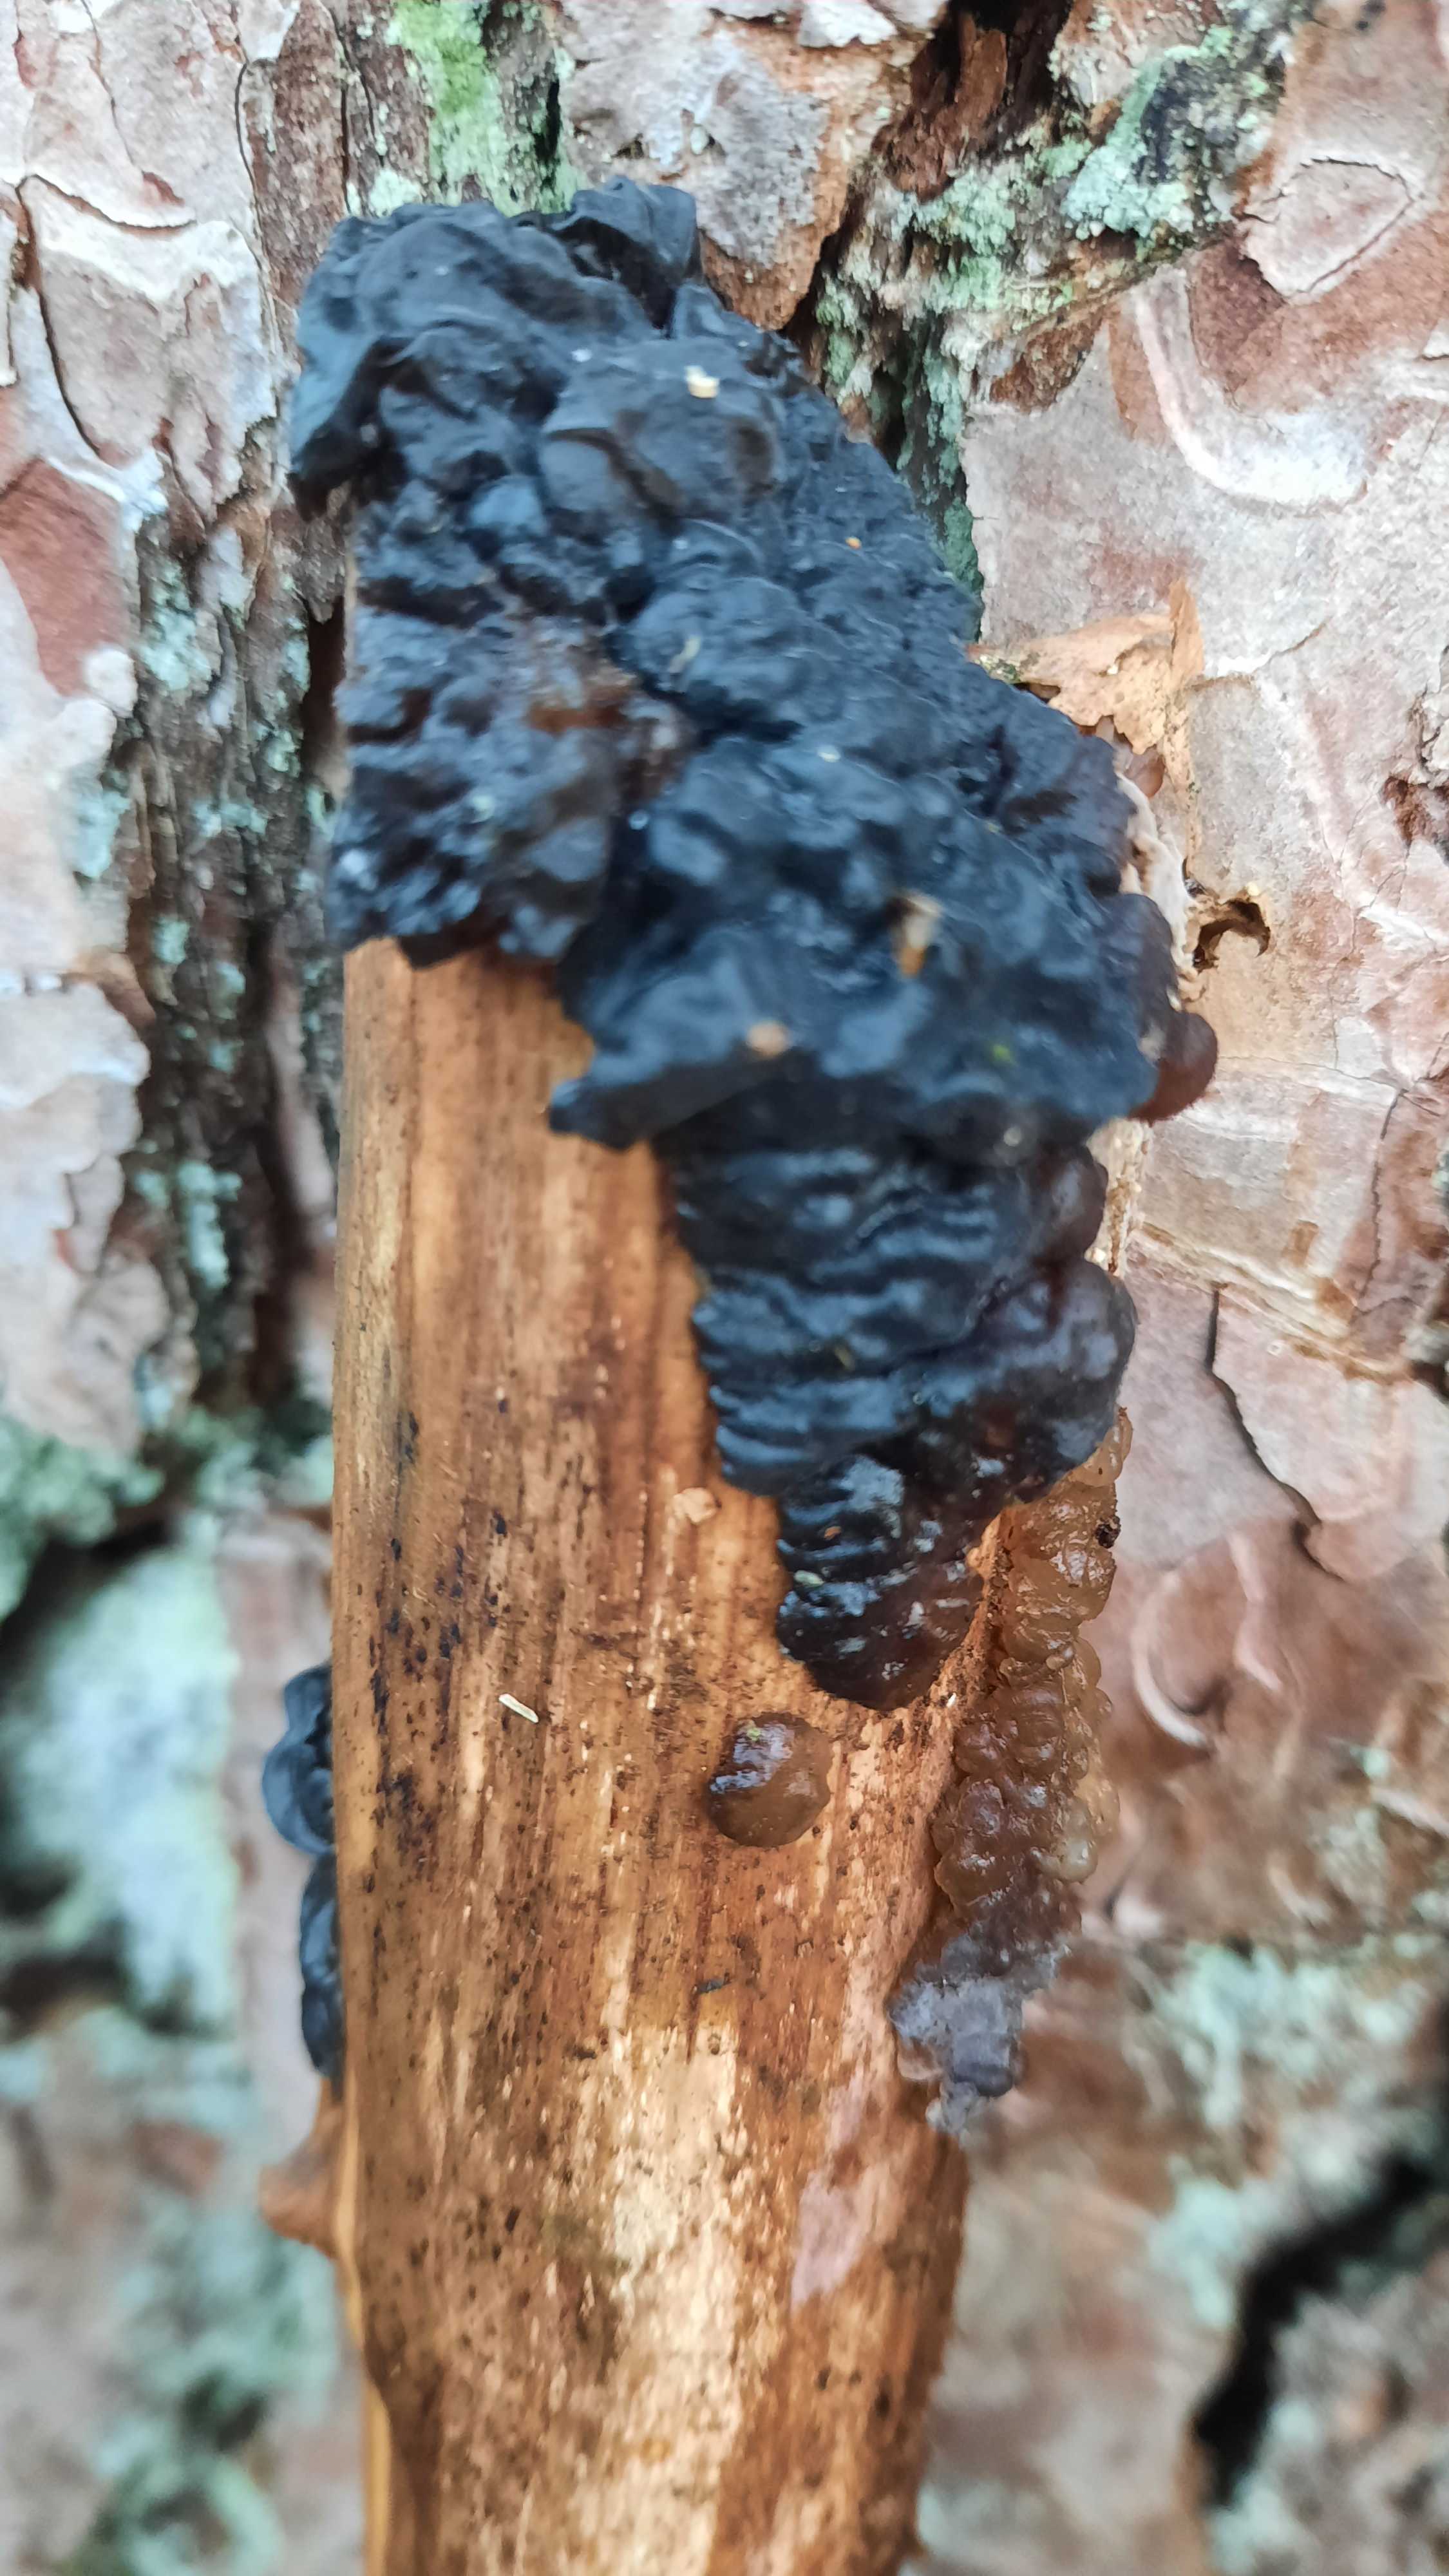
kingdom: Fungi
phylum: Basidiomycota
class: Agaricomycetes
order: Auriculariales
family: Auriculariaceae
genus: Exidia
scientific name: Exidia nigricans
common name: almindelig bævretop
